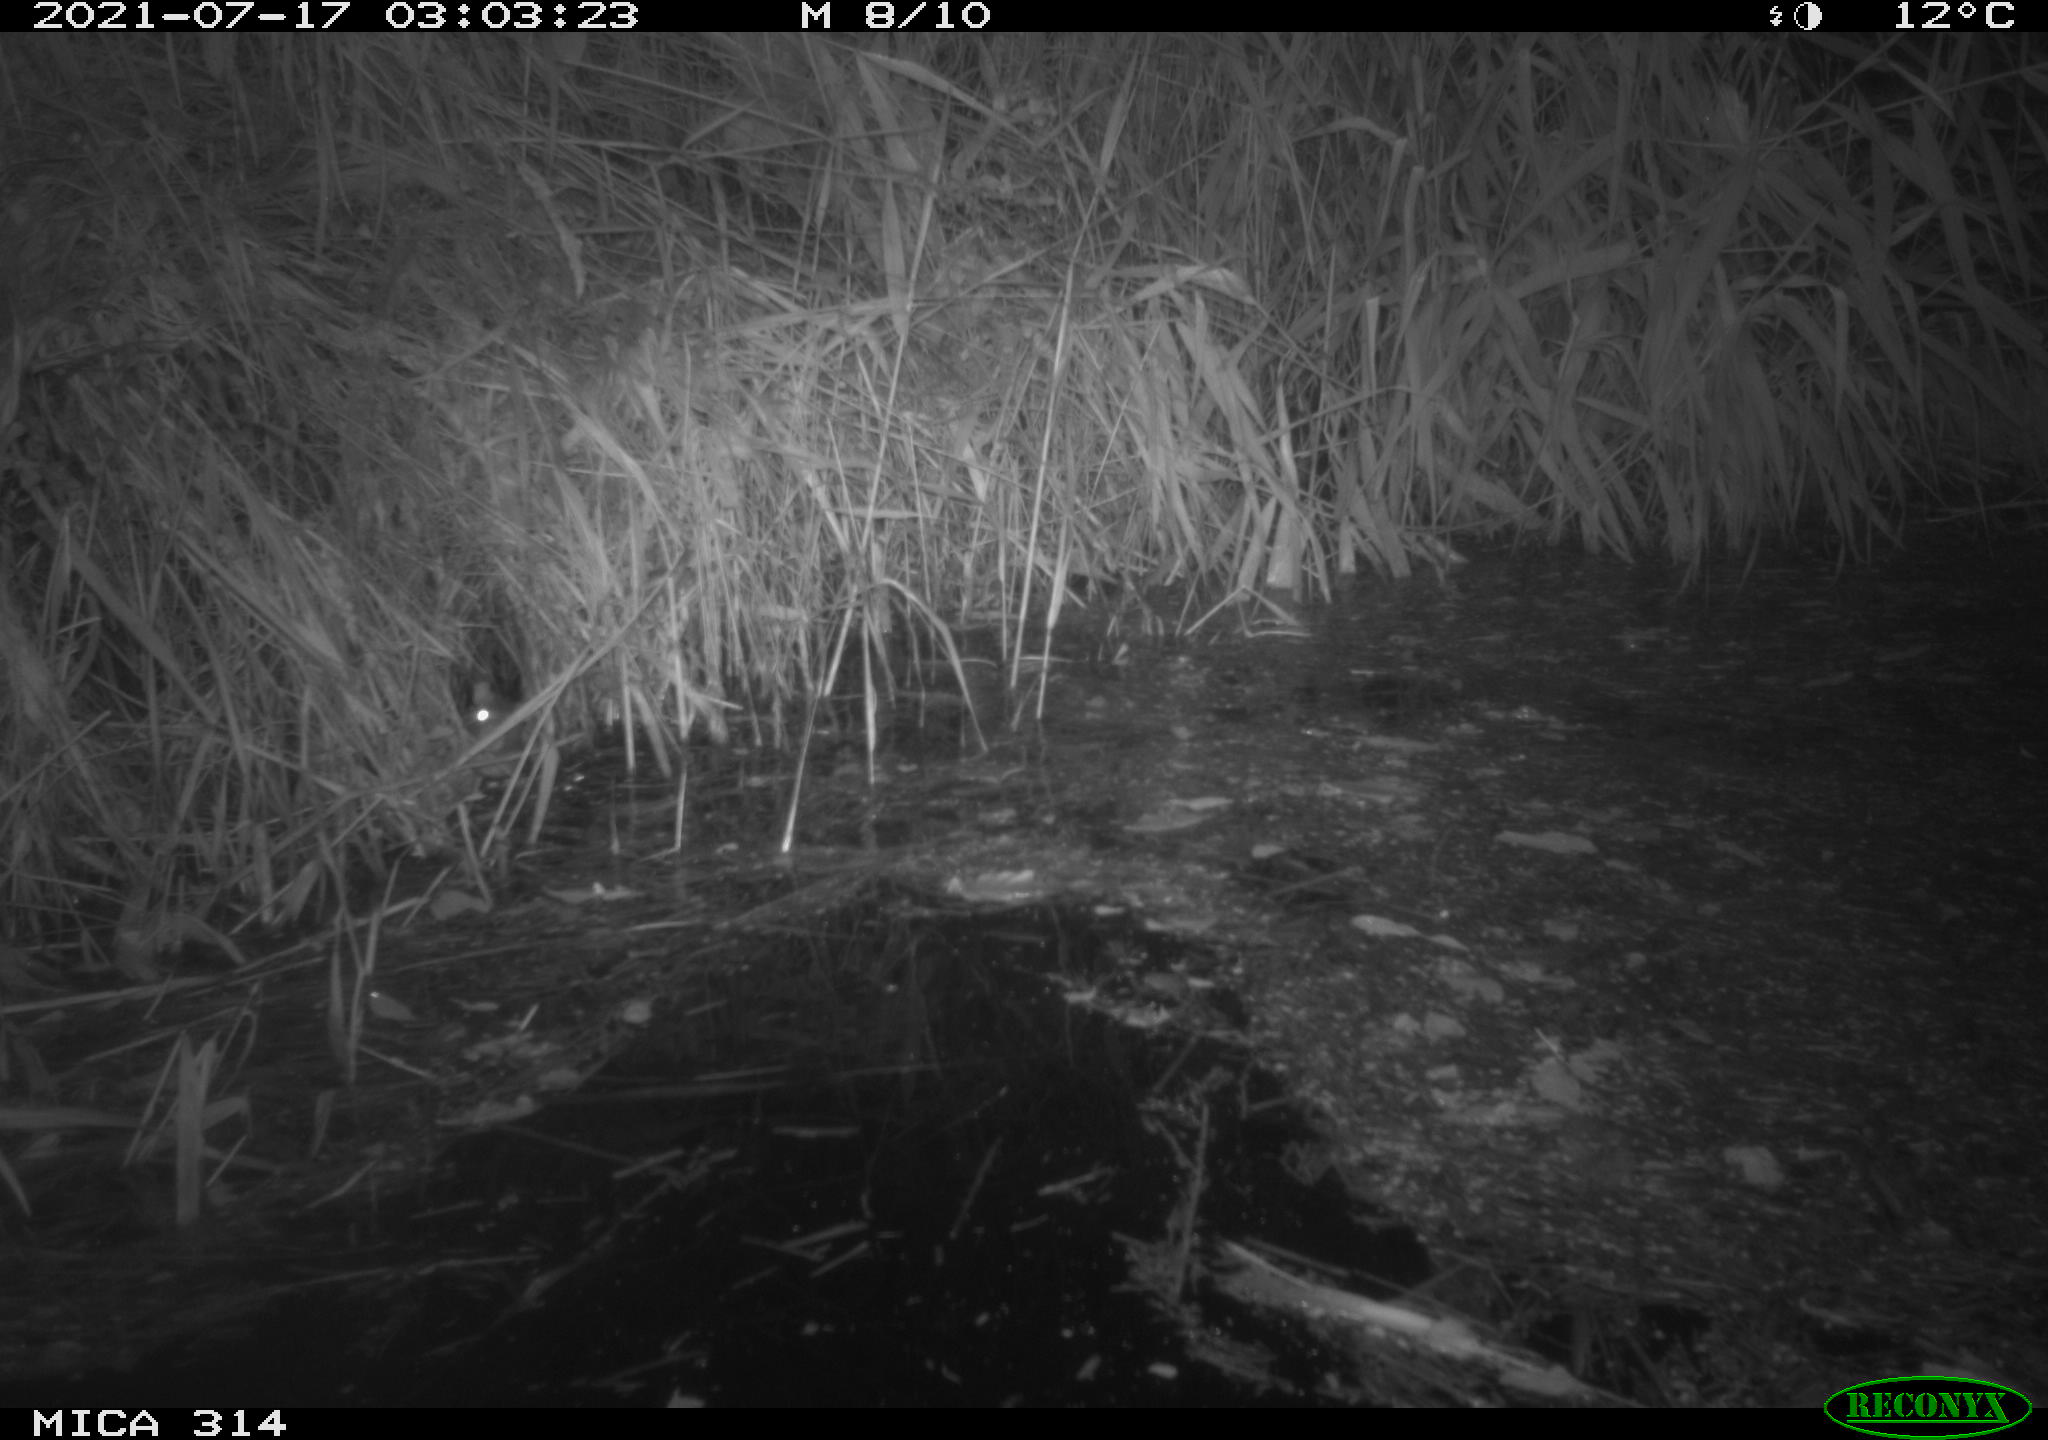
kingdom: Animalia
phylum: Chordata
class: Mammalia
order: Rodentia
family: Muridae
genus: Rattus
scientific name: Rattus norvegicus
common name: Brown rat
